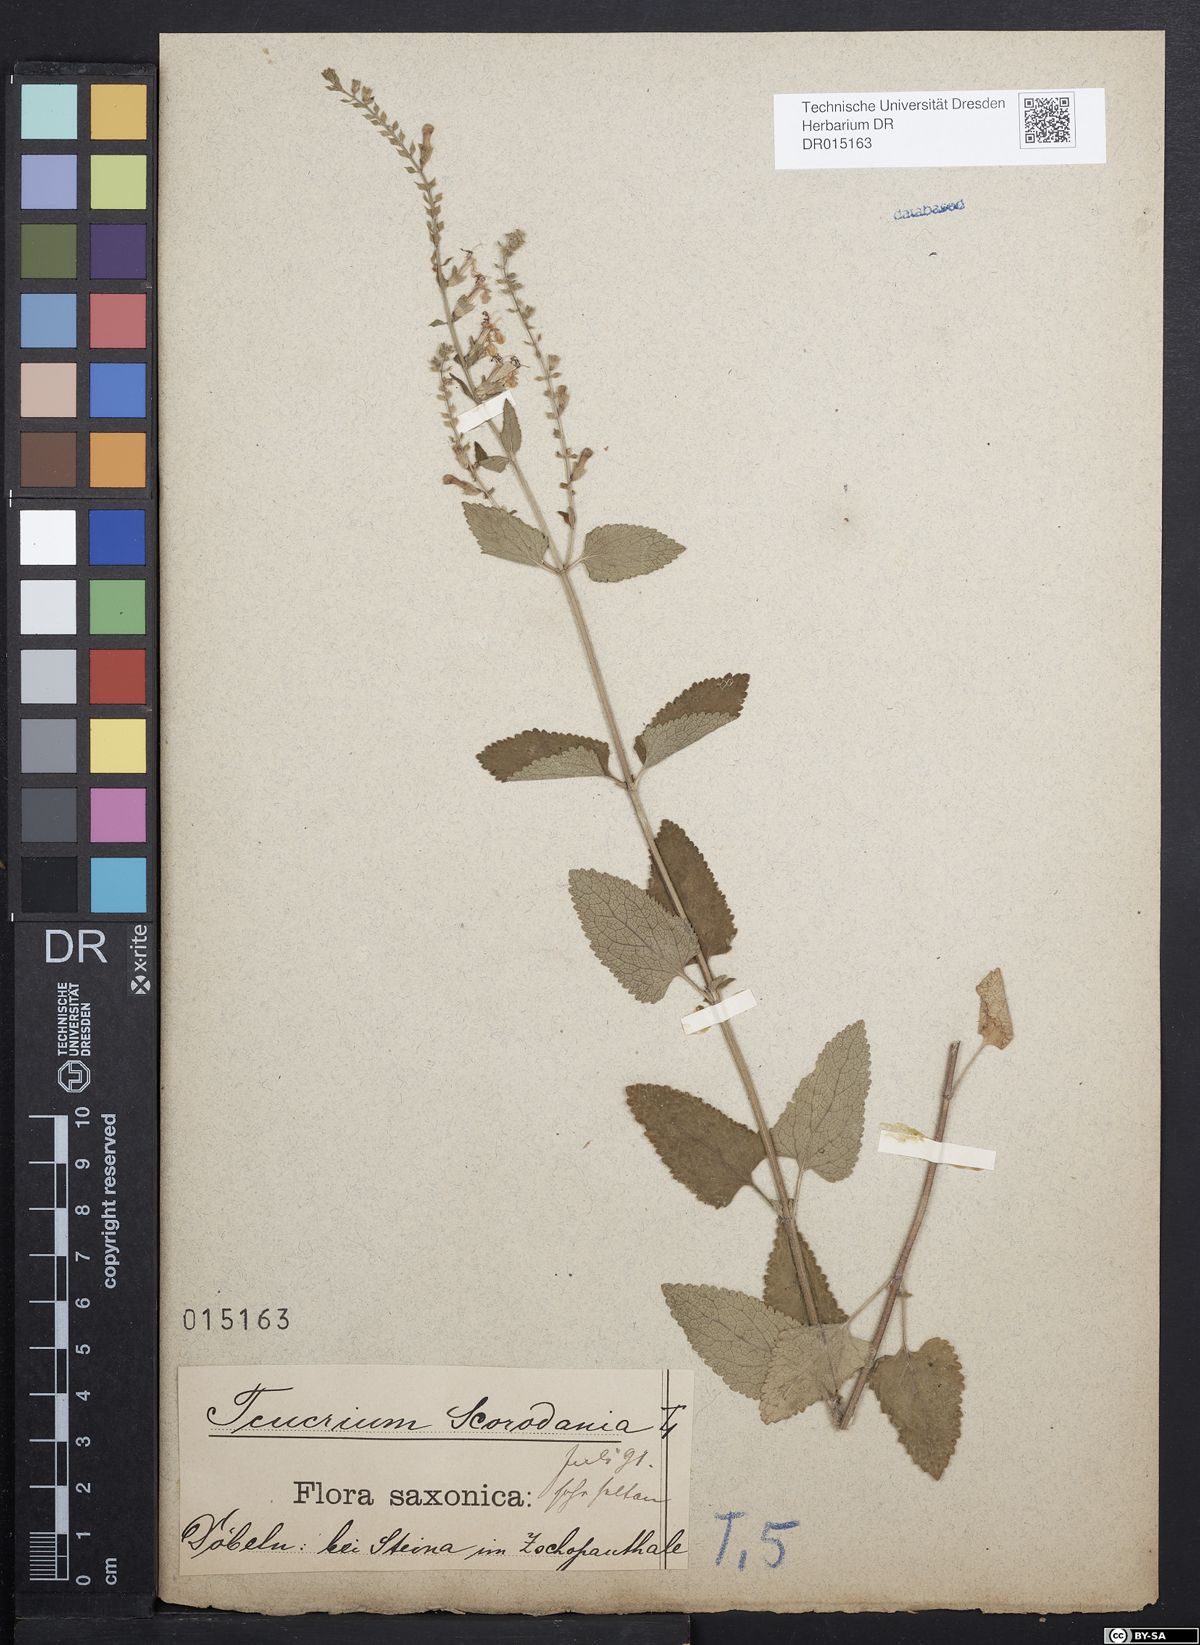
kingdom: Plantae
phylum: Tracheophyta
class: Magnoliopsida
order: Lamiales
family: Lamiaceae
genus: Teucrium
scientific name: Teucrium scorodonia
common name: Woodland germander
